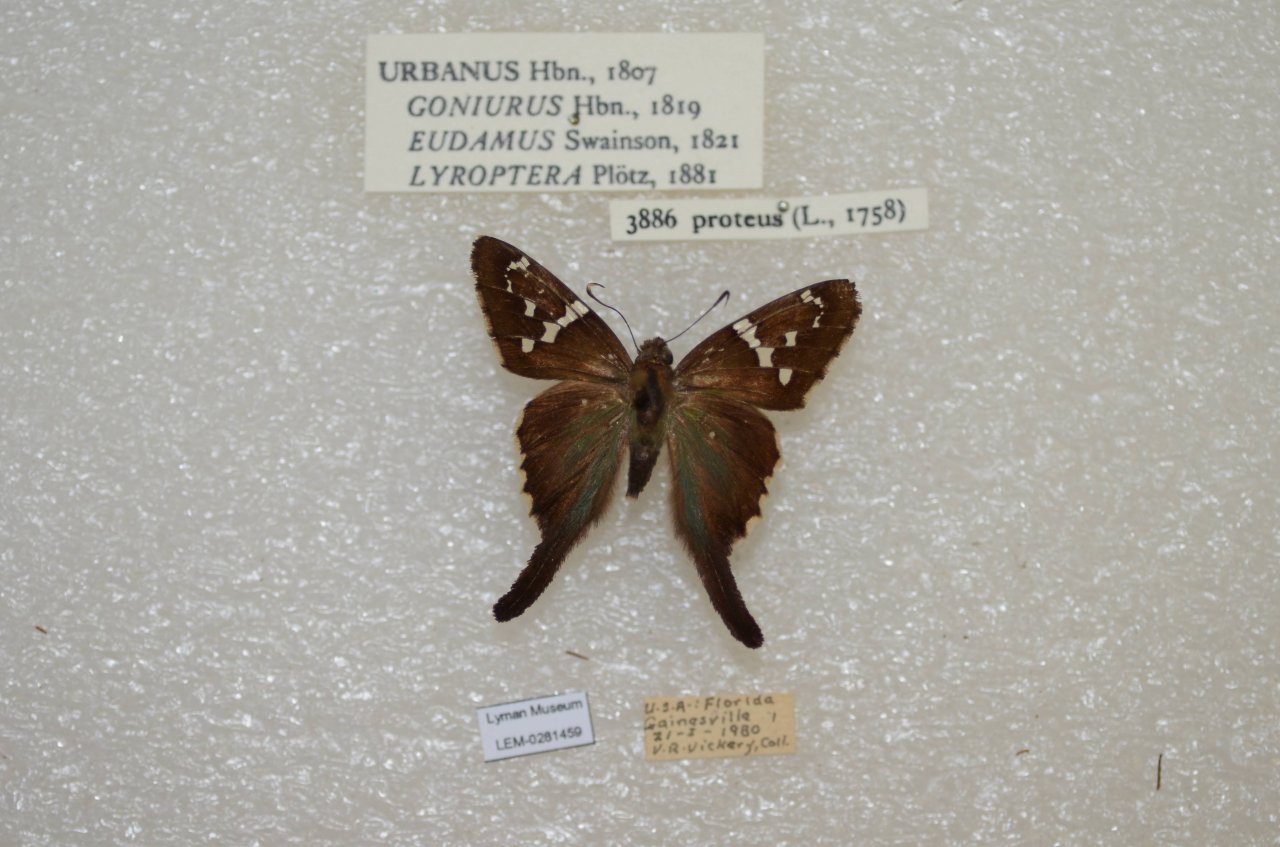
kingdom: Animalia
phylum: Arthropoda
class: Insecta
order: Lepidoptera
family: Hesperiidae
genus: Urbanus
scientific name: Urbanus proteus
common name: Long-tailed Skipper
